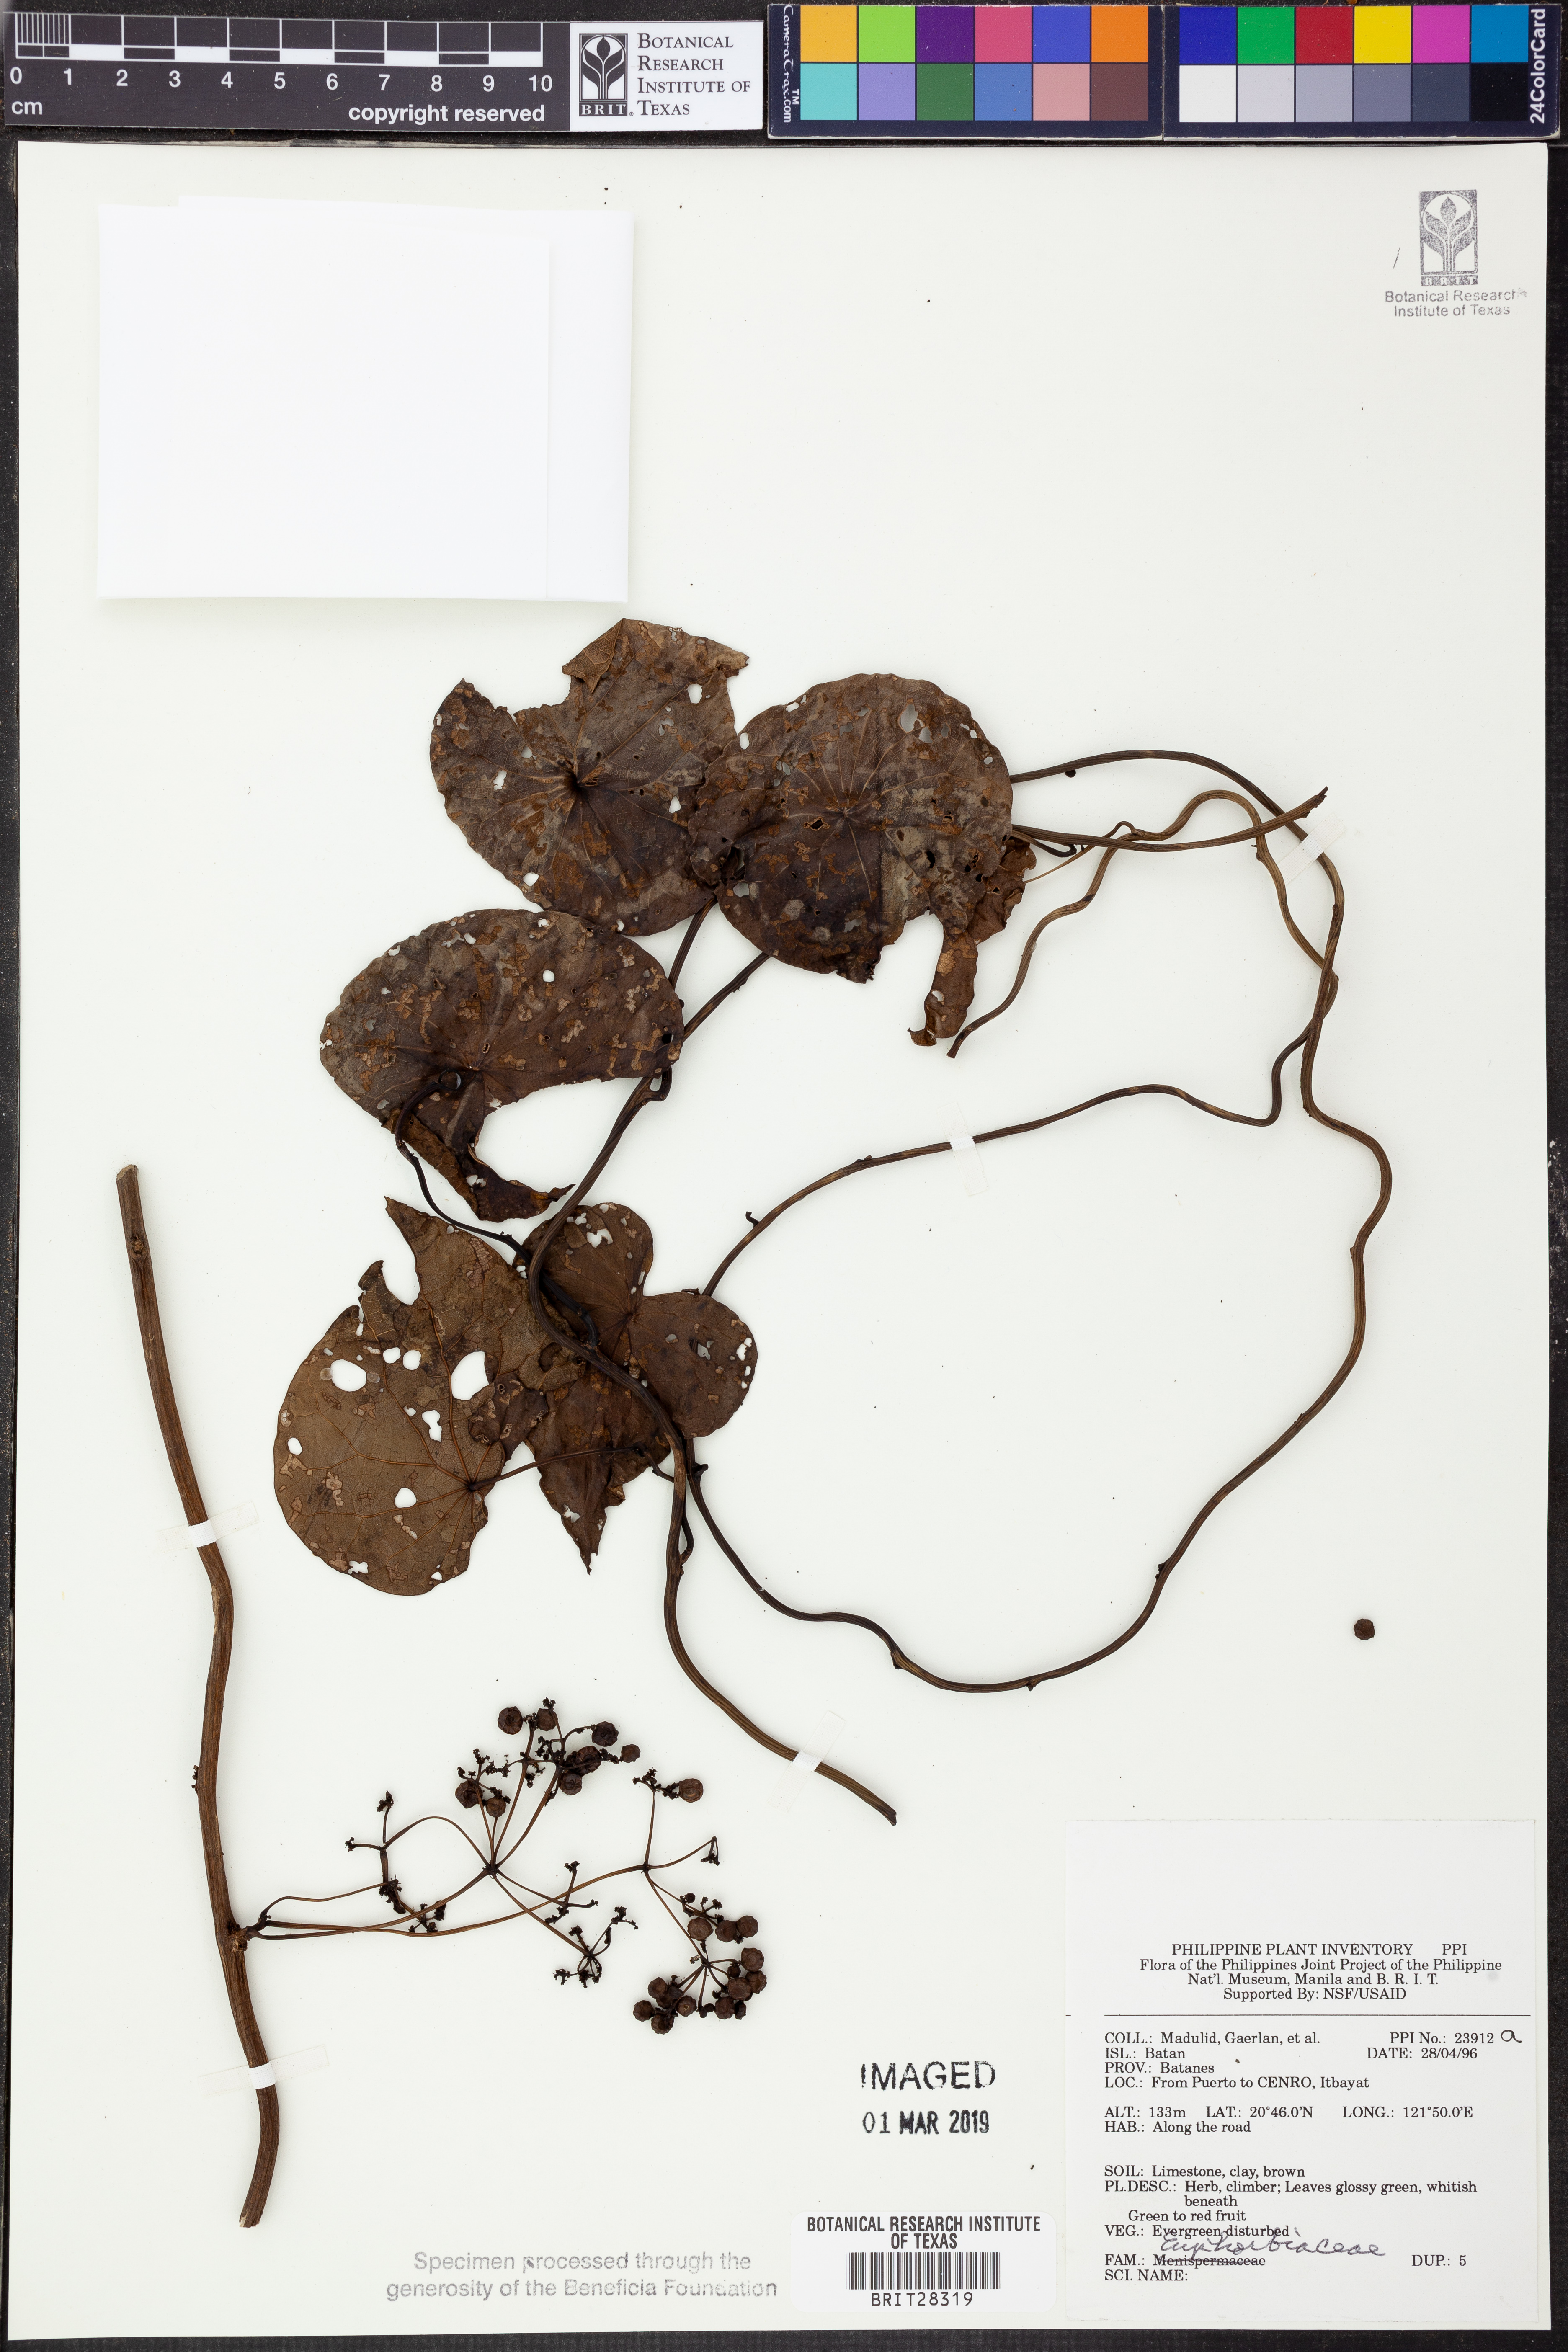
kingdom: Plantae
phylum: Tracheophyta
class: Magnoliopsida
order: Malpighiales
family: Euphorbiaceae
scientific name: Euphorbiaceae
